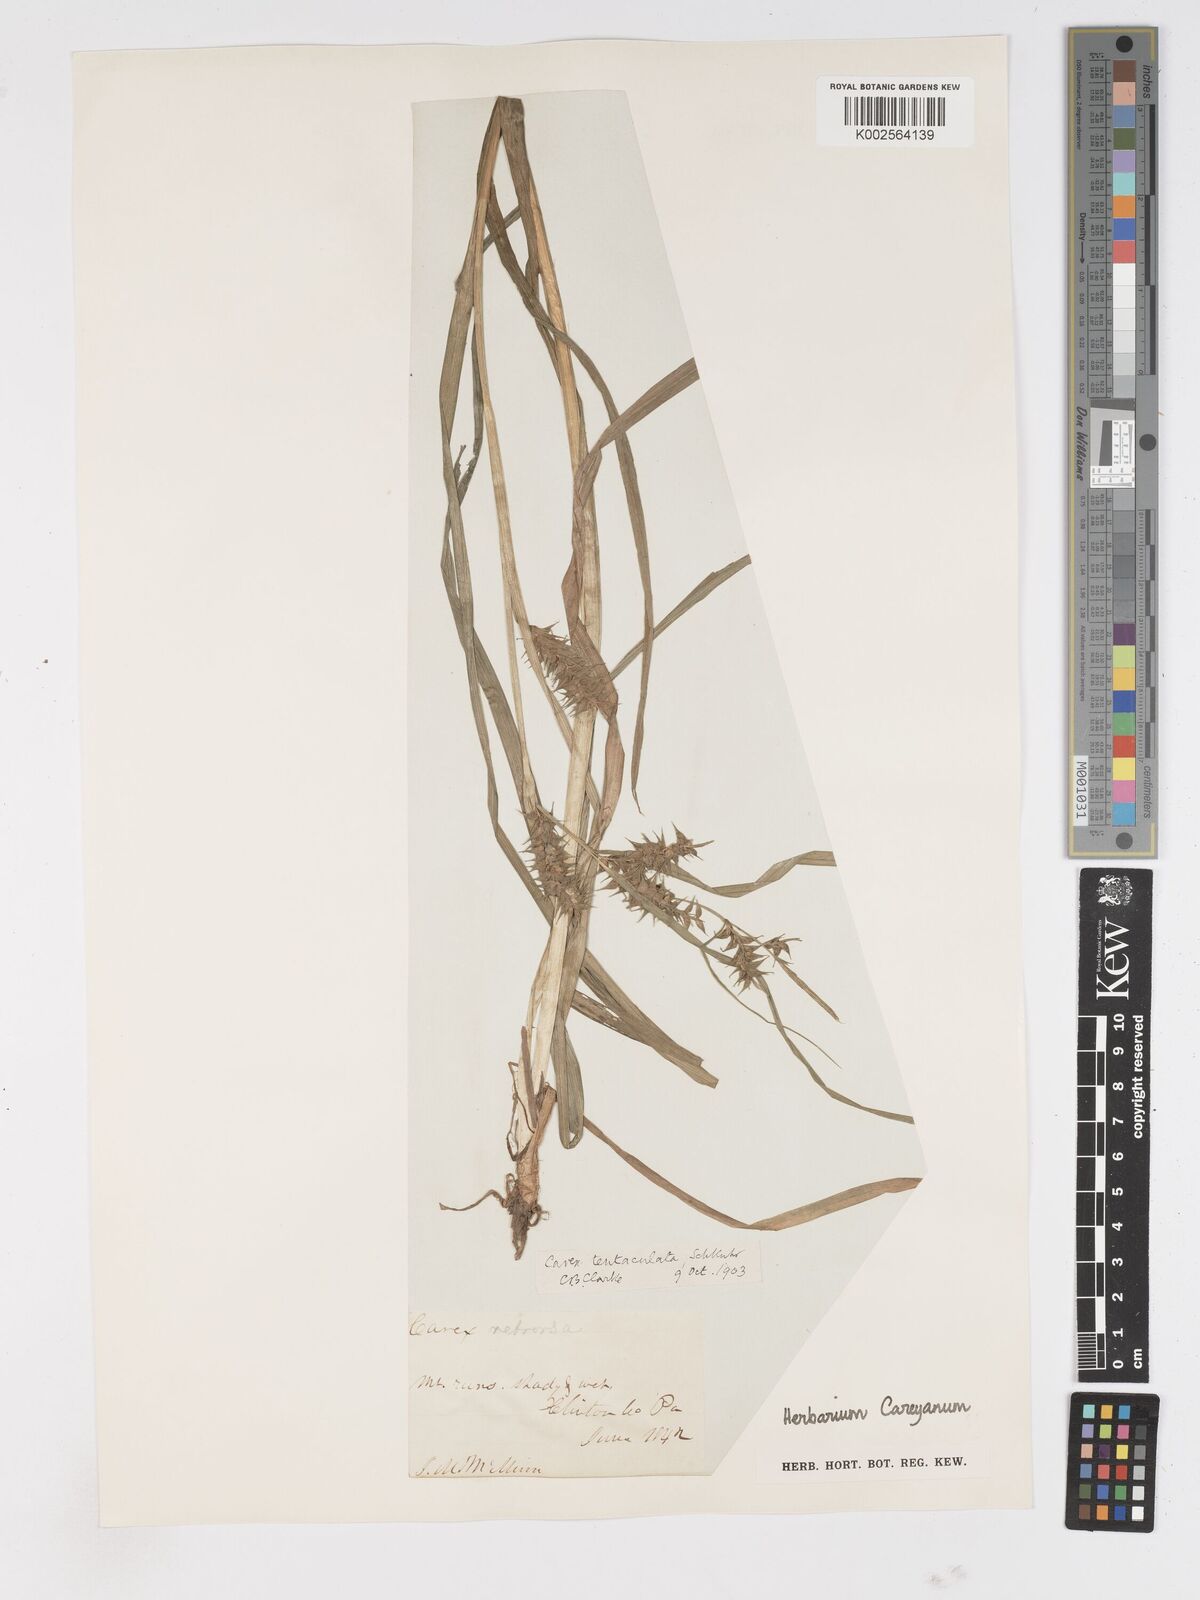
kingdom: Plantae
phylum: Tracheophyta
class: Liliopsida
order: Poales
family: Cyperaceae
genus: Carex
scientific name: Carex retrorsa
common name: Knot-sheath sedge
